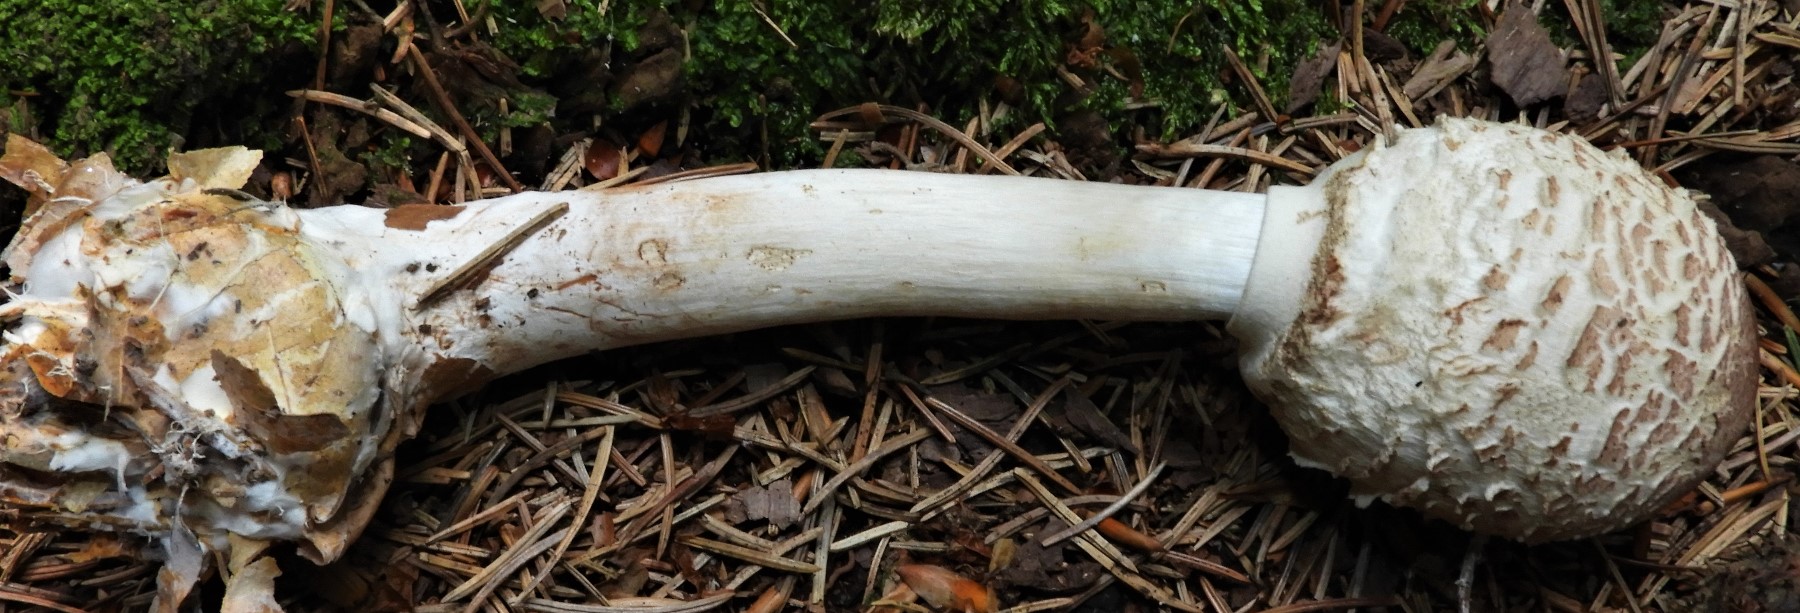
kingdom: Fungi
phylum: Basidiomycota
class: Agaricomycetes
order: Agaricales
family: Agaricaceae
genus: Chlorophyllum
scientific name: Chlorophyllum
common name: rabarberhat
